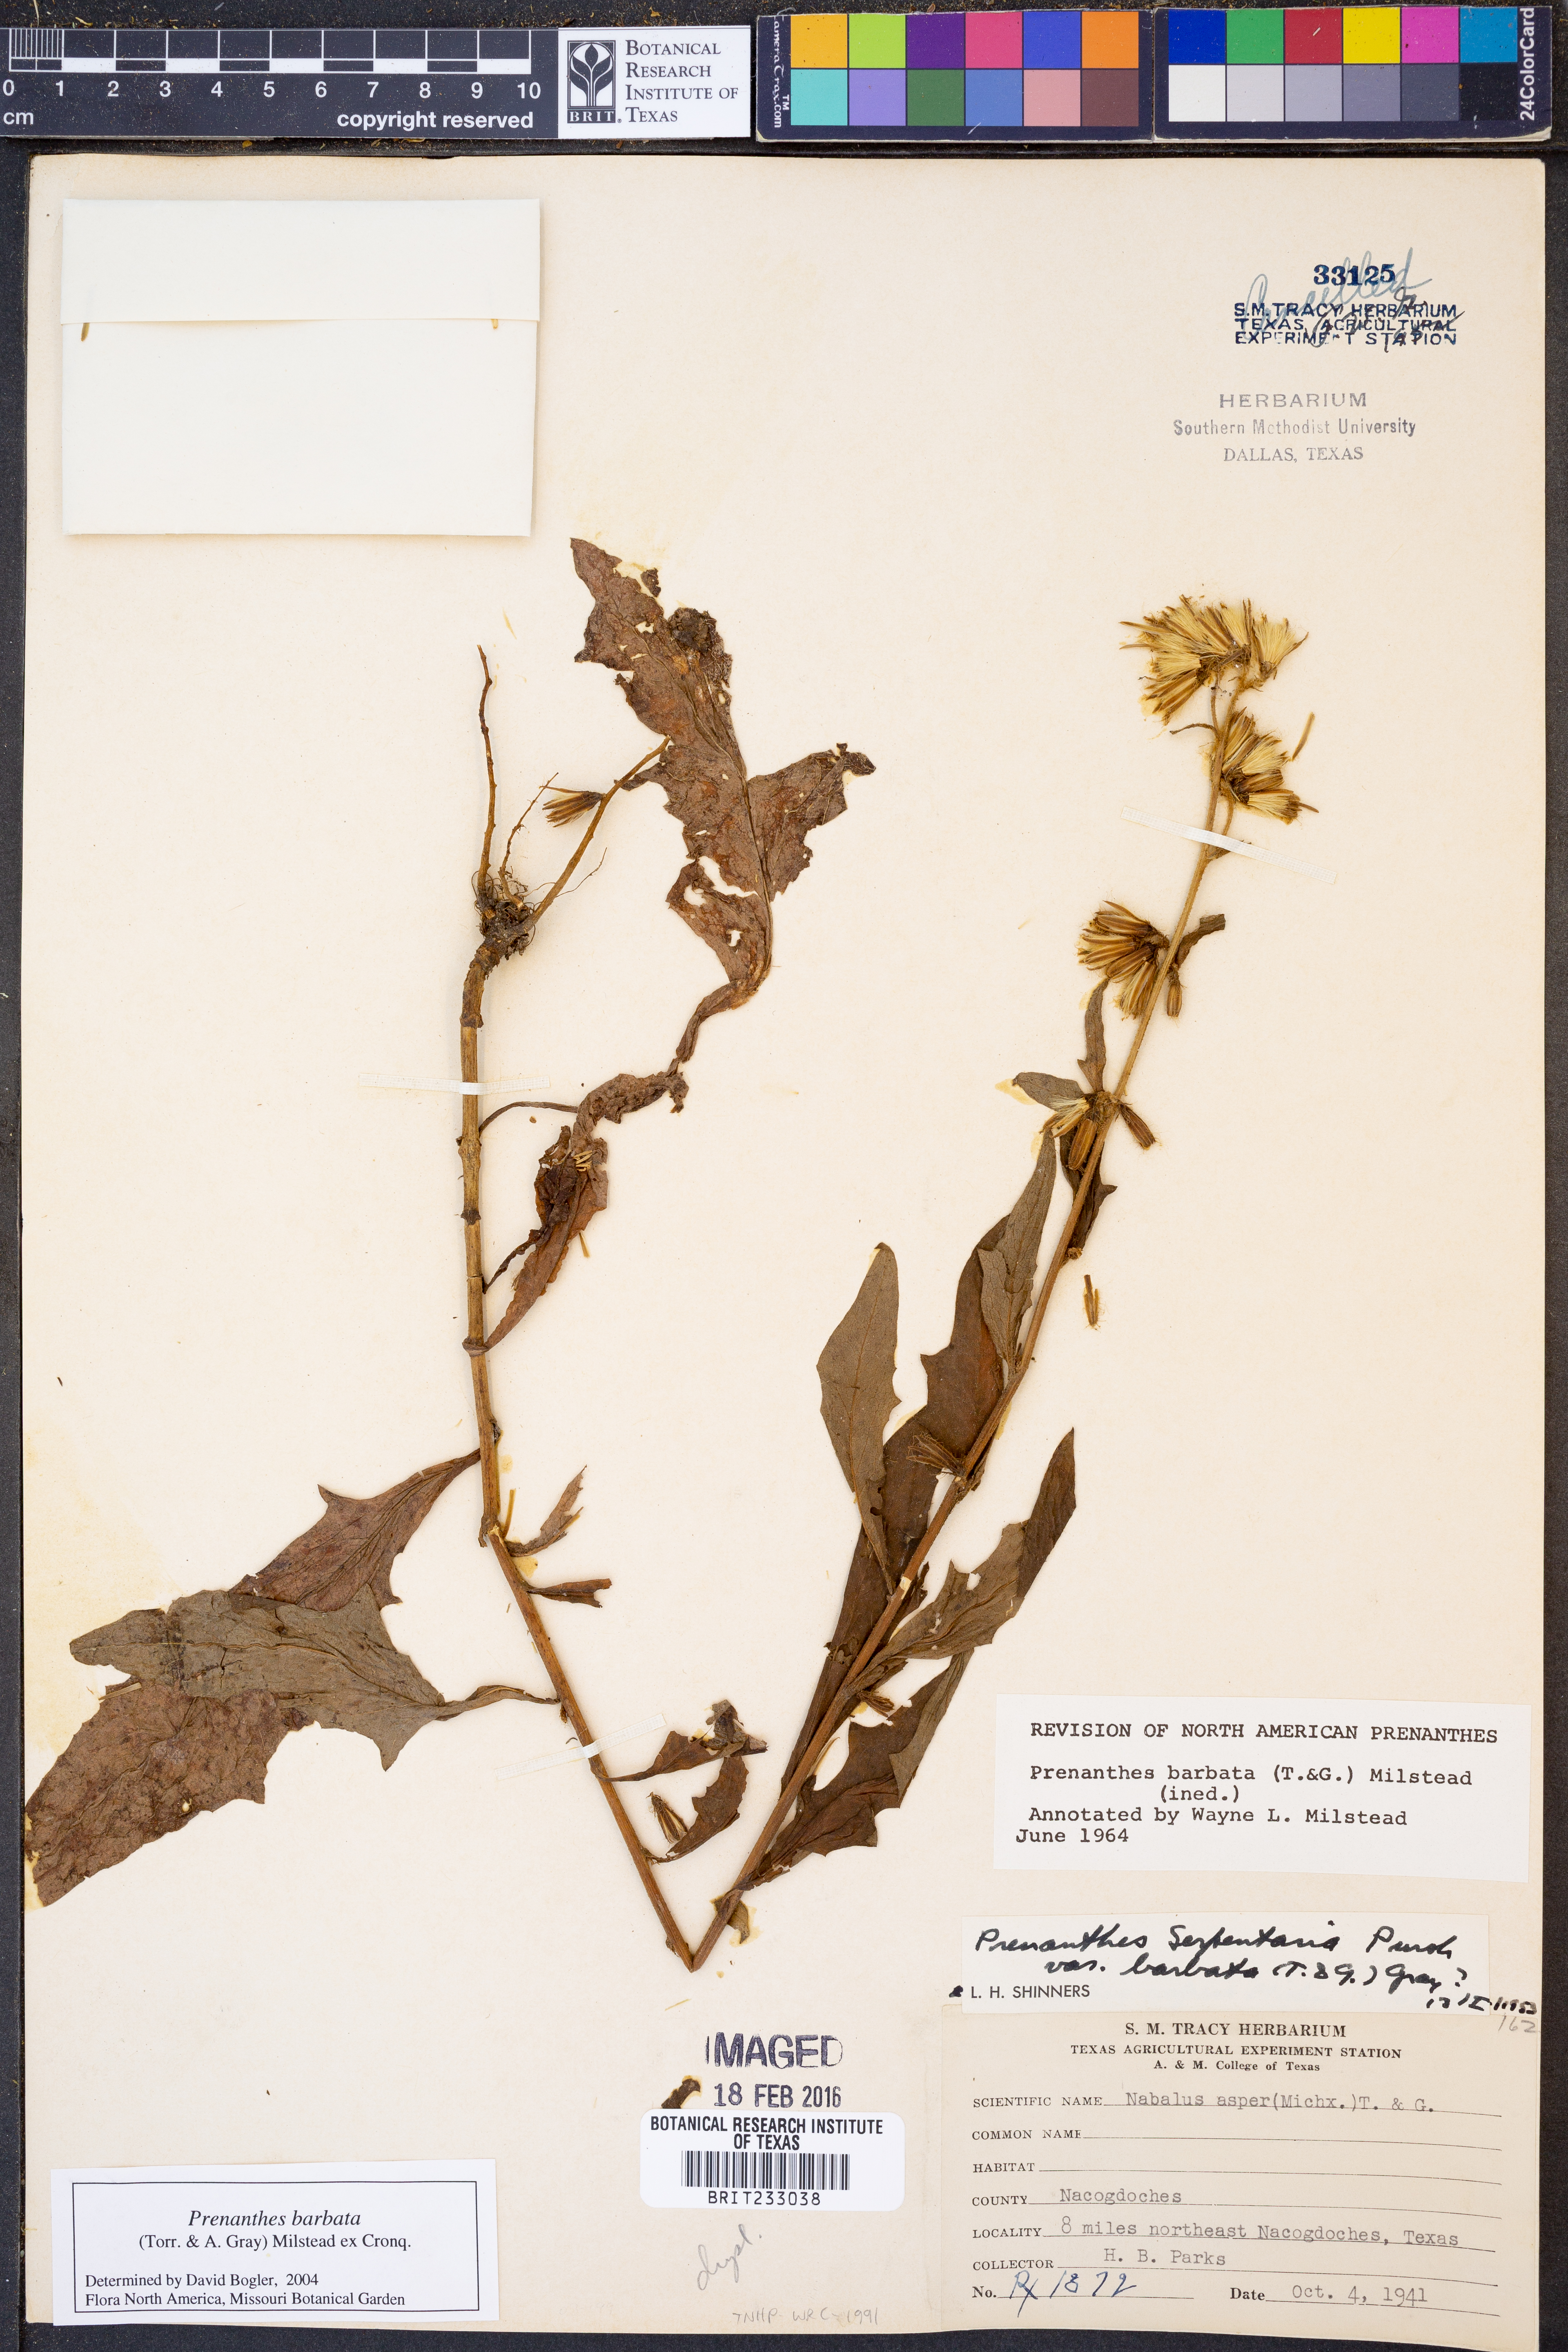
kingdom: Plantae
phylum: Tracheophyta
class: Magnoliopsida
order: Asterales
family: Asteraceae
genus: Nabalus
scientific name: Nabalus barbata
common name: Barbed rattlesnakeroot
